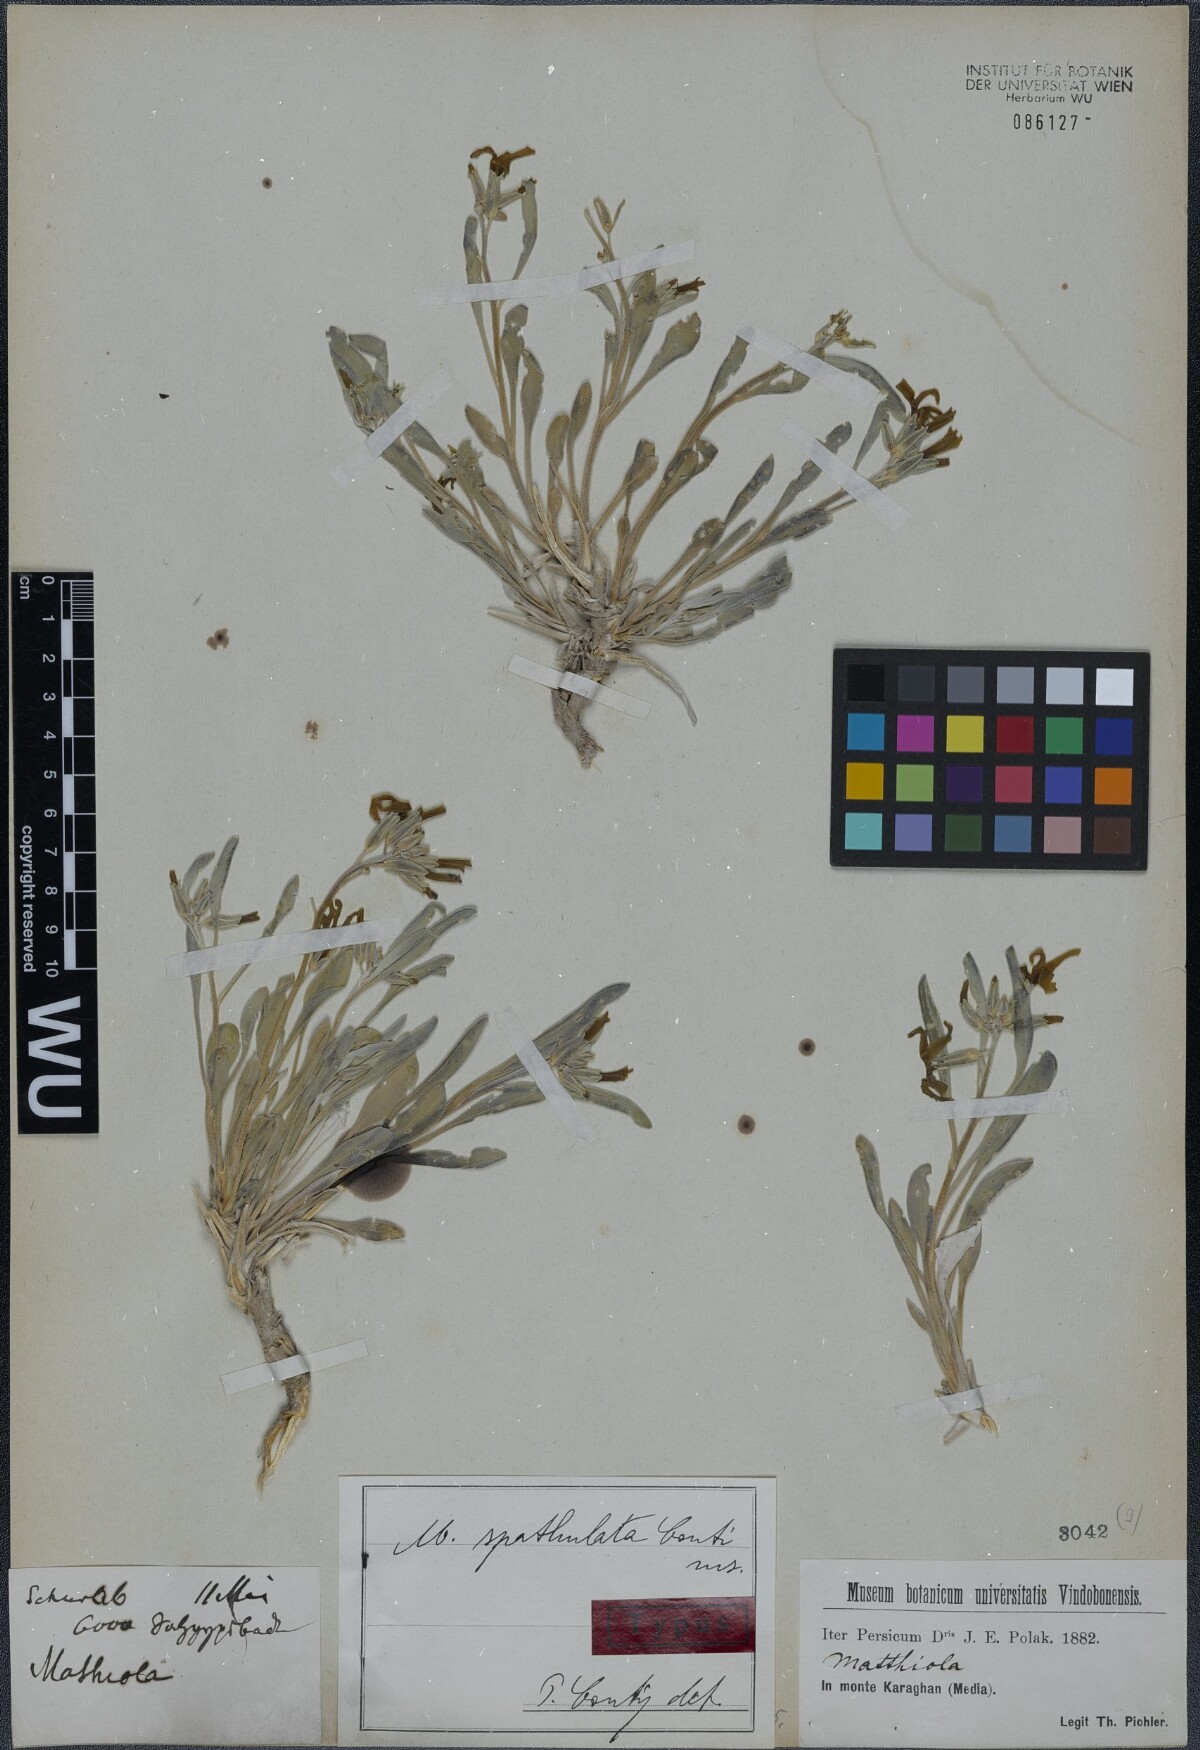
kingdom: Plantae
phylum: Tracheophyta
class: Magnoliopsida
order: Brassicales
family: Brassicaceae
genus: Matthiola
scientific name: Matthiola spathulata
